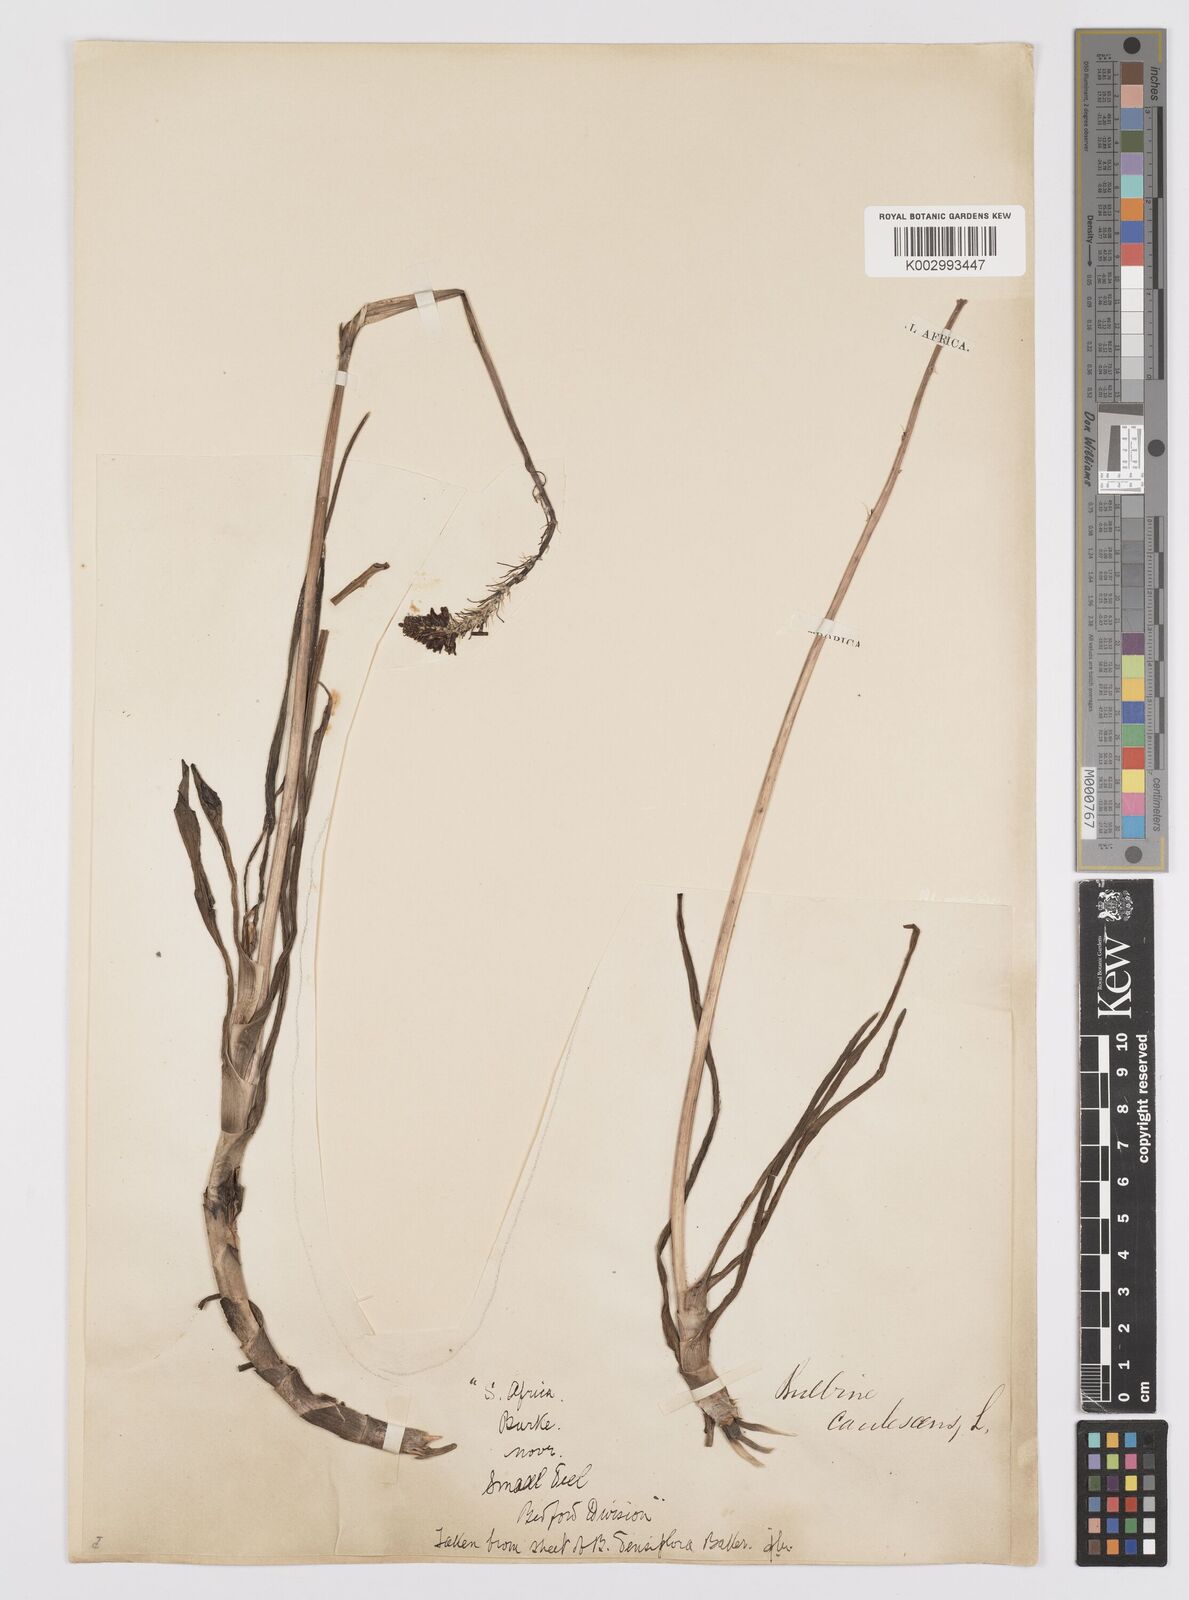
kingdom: Plantae
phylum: Tracheophyta
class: Liliopsida
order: Asparagales
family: Asphodelaceae
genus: Bulbine
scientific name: Bulbine frutescens
